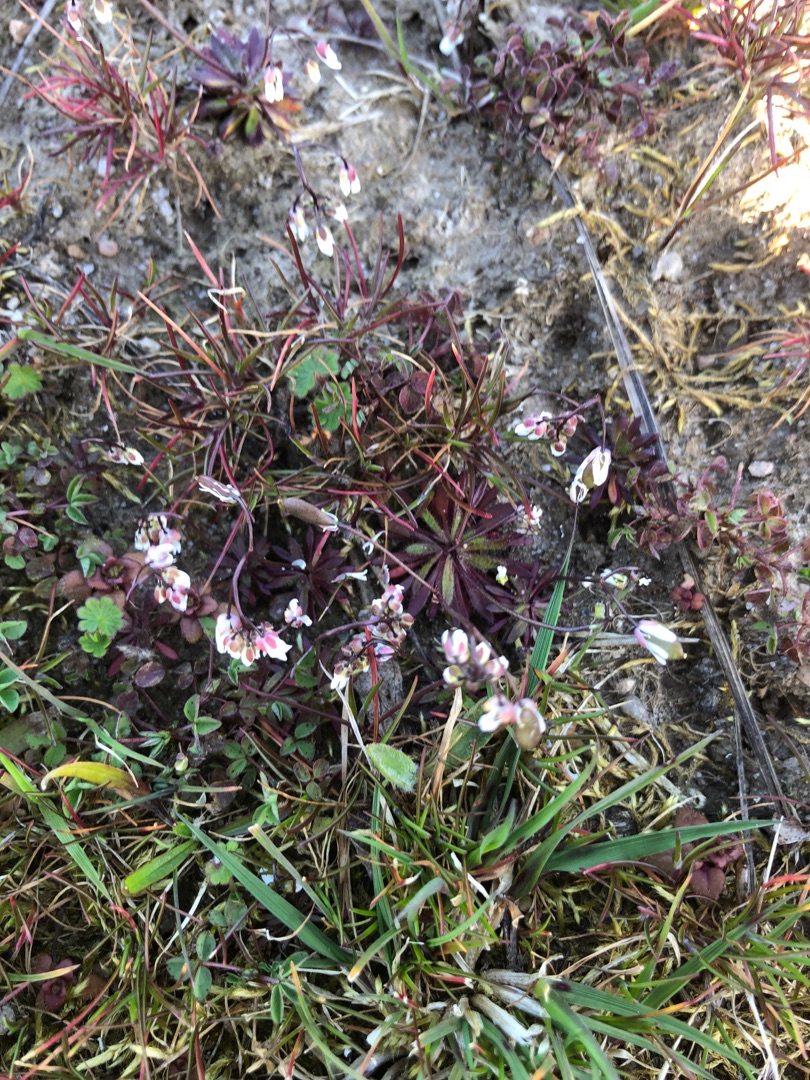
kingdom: Plantae
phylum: Tracheophyta
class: Magnoliopsida
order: Brassicales
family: Brassicaceae
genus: Draba
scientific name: Draba verna
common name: Vår-gæslingeblomst
